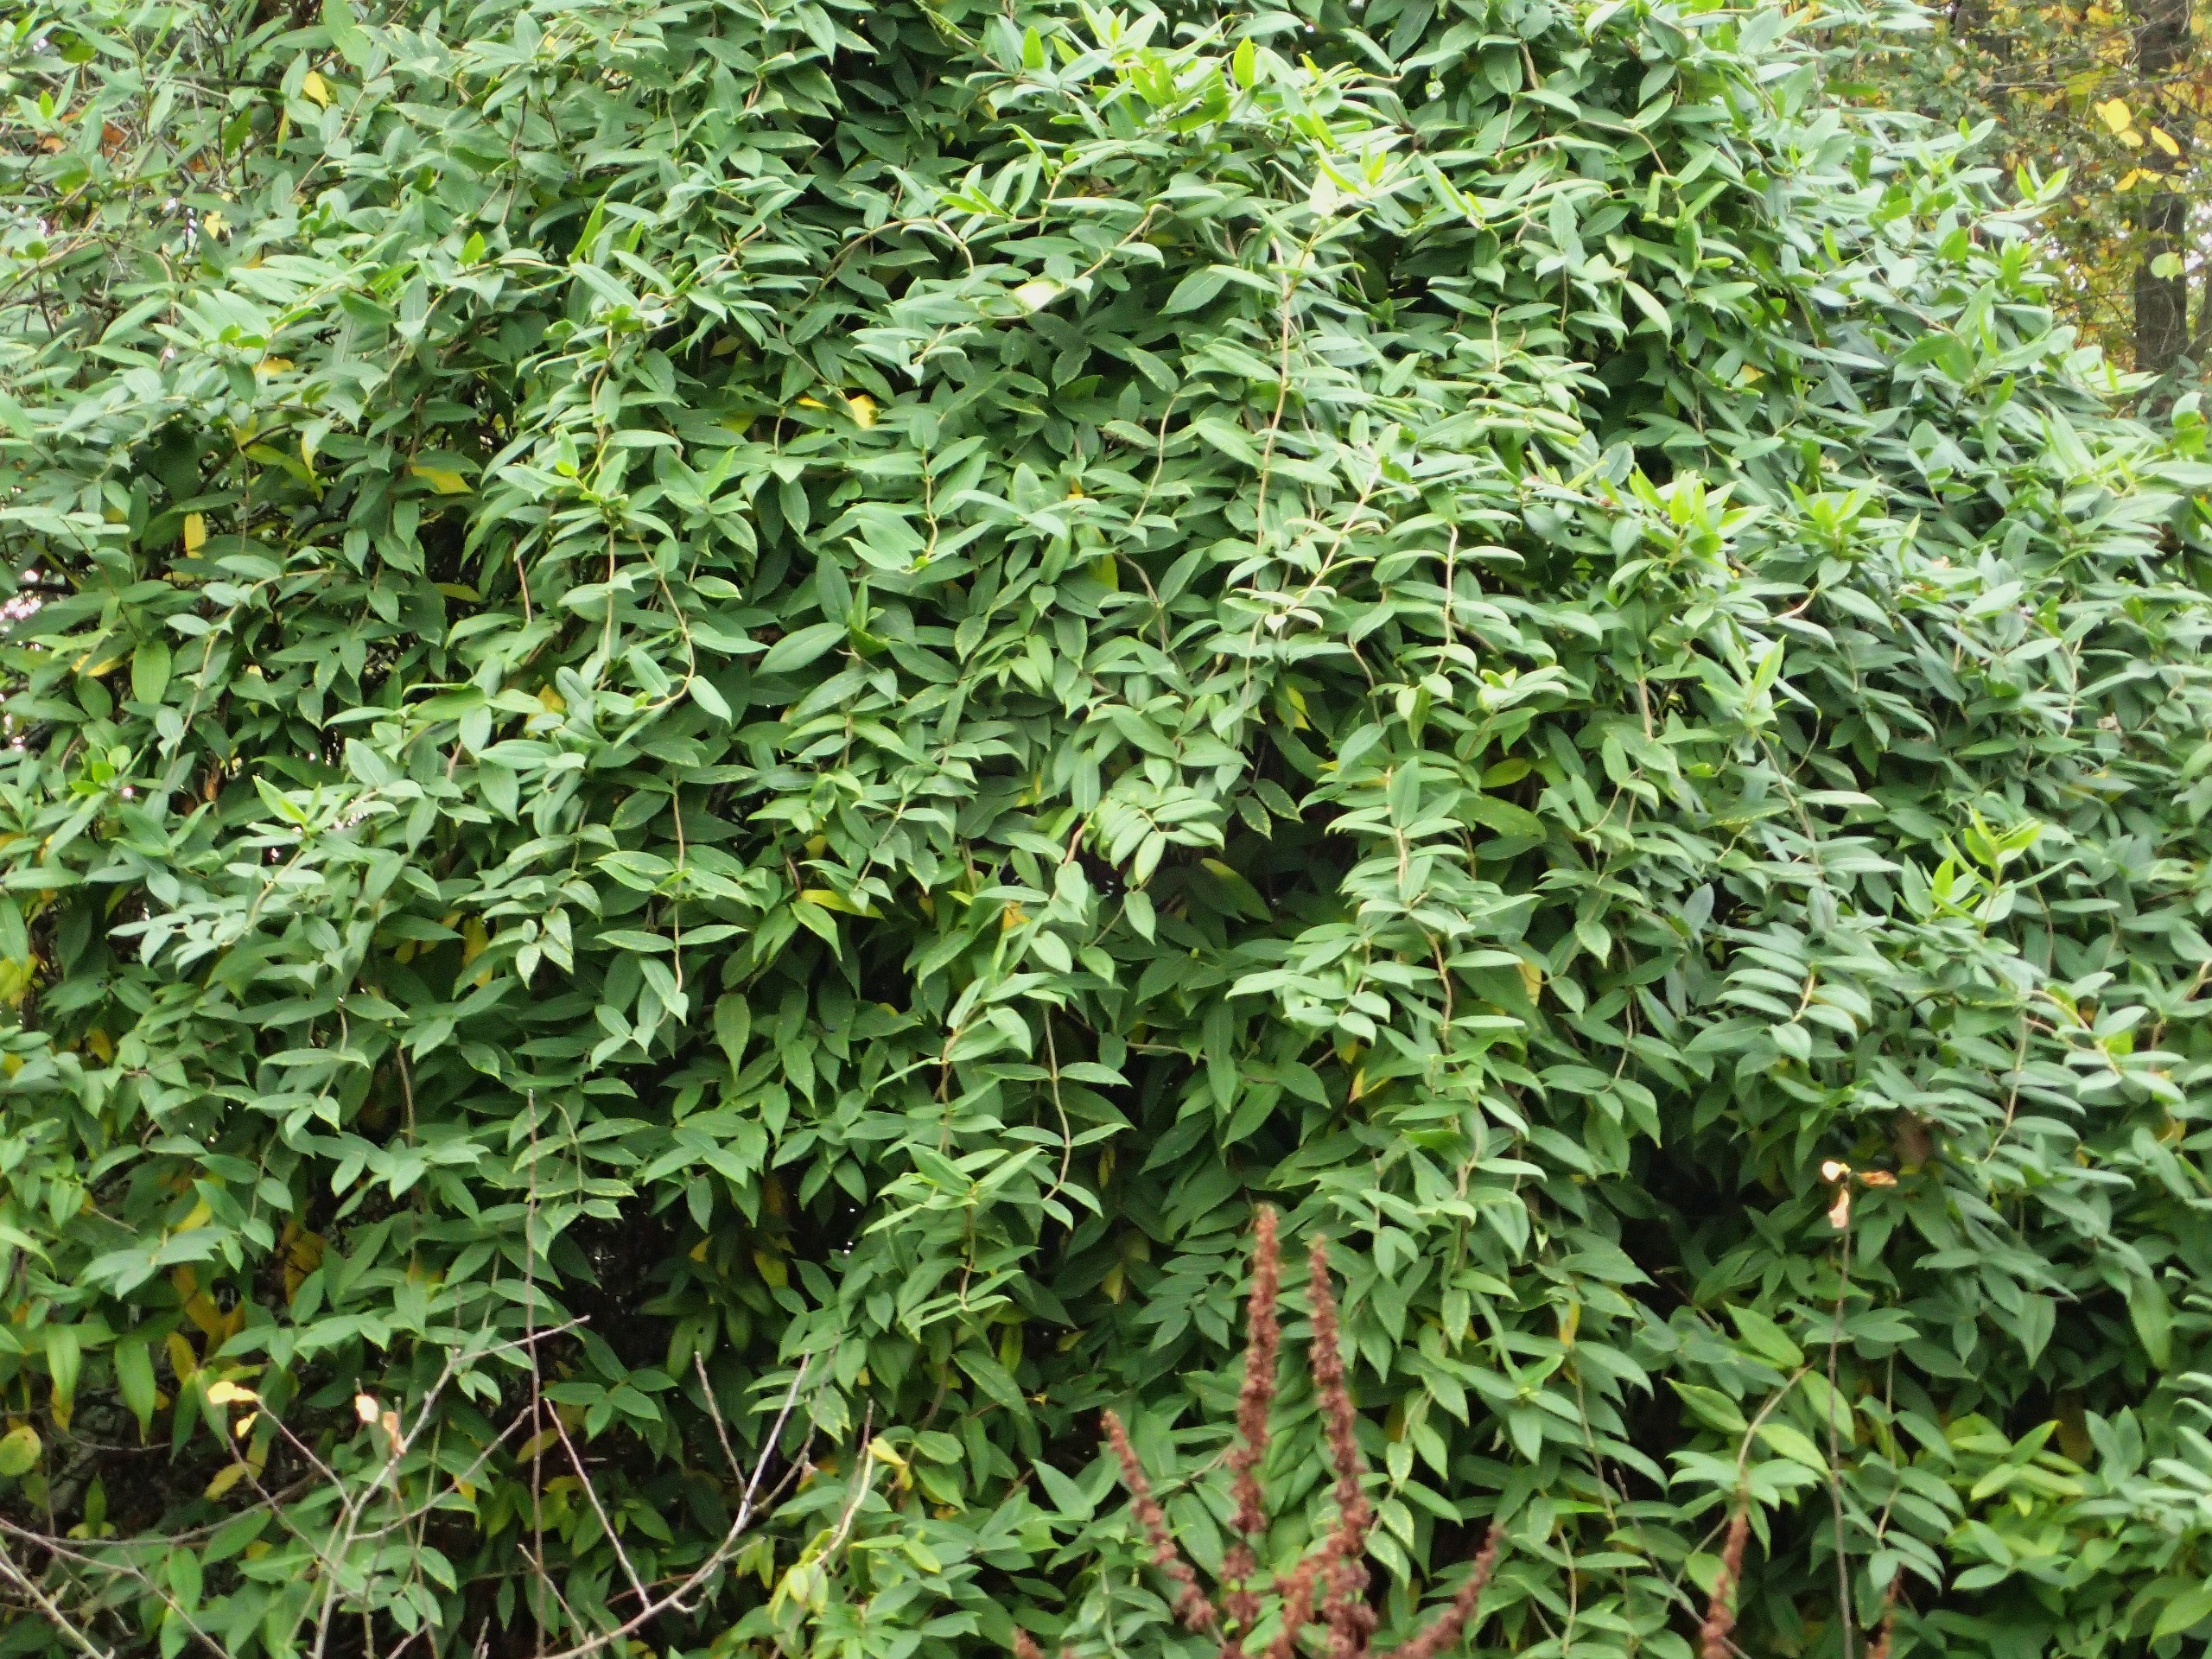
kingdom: Plantae
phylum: Tracheophyta
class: Magnoliopsida
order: Dipsacales
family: Caprifoliaceae
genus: Lonicera
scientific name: Lonicera acuminata
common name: Henrys gedeblad
